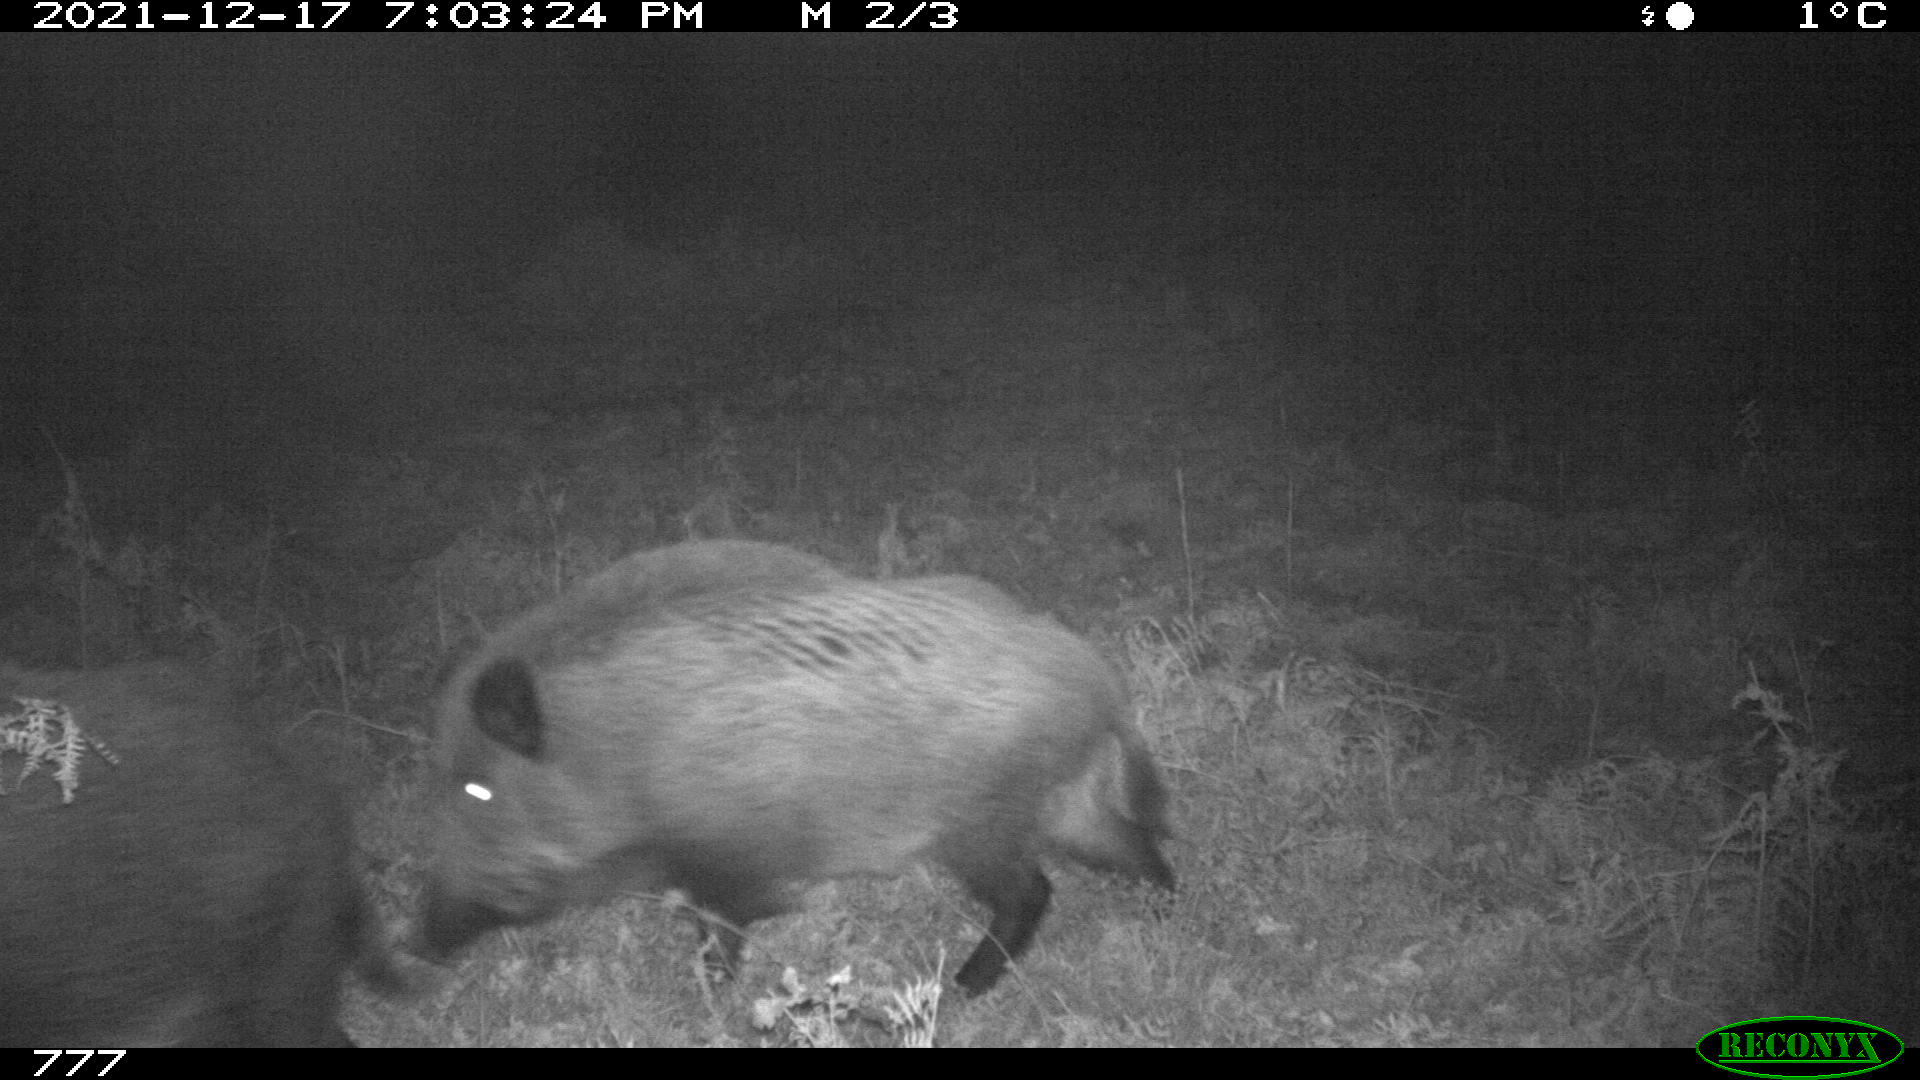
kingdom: Animalia
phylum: Chordata
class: Mammalia
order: Artiodactyla
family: Suidae
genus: Sus
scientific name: Sus scrofa
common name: Wild boar
